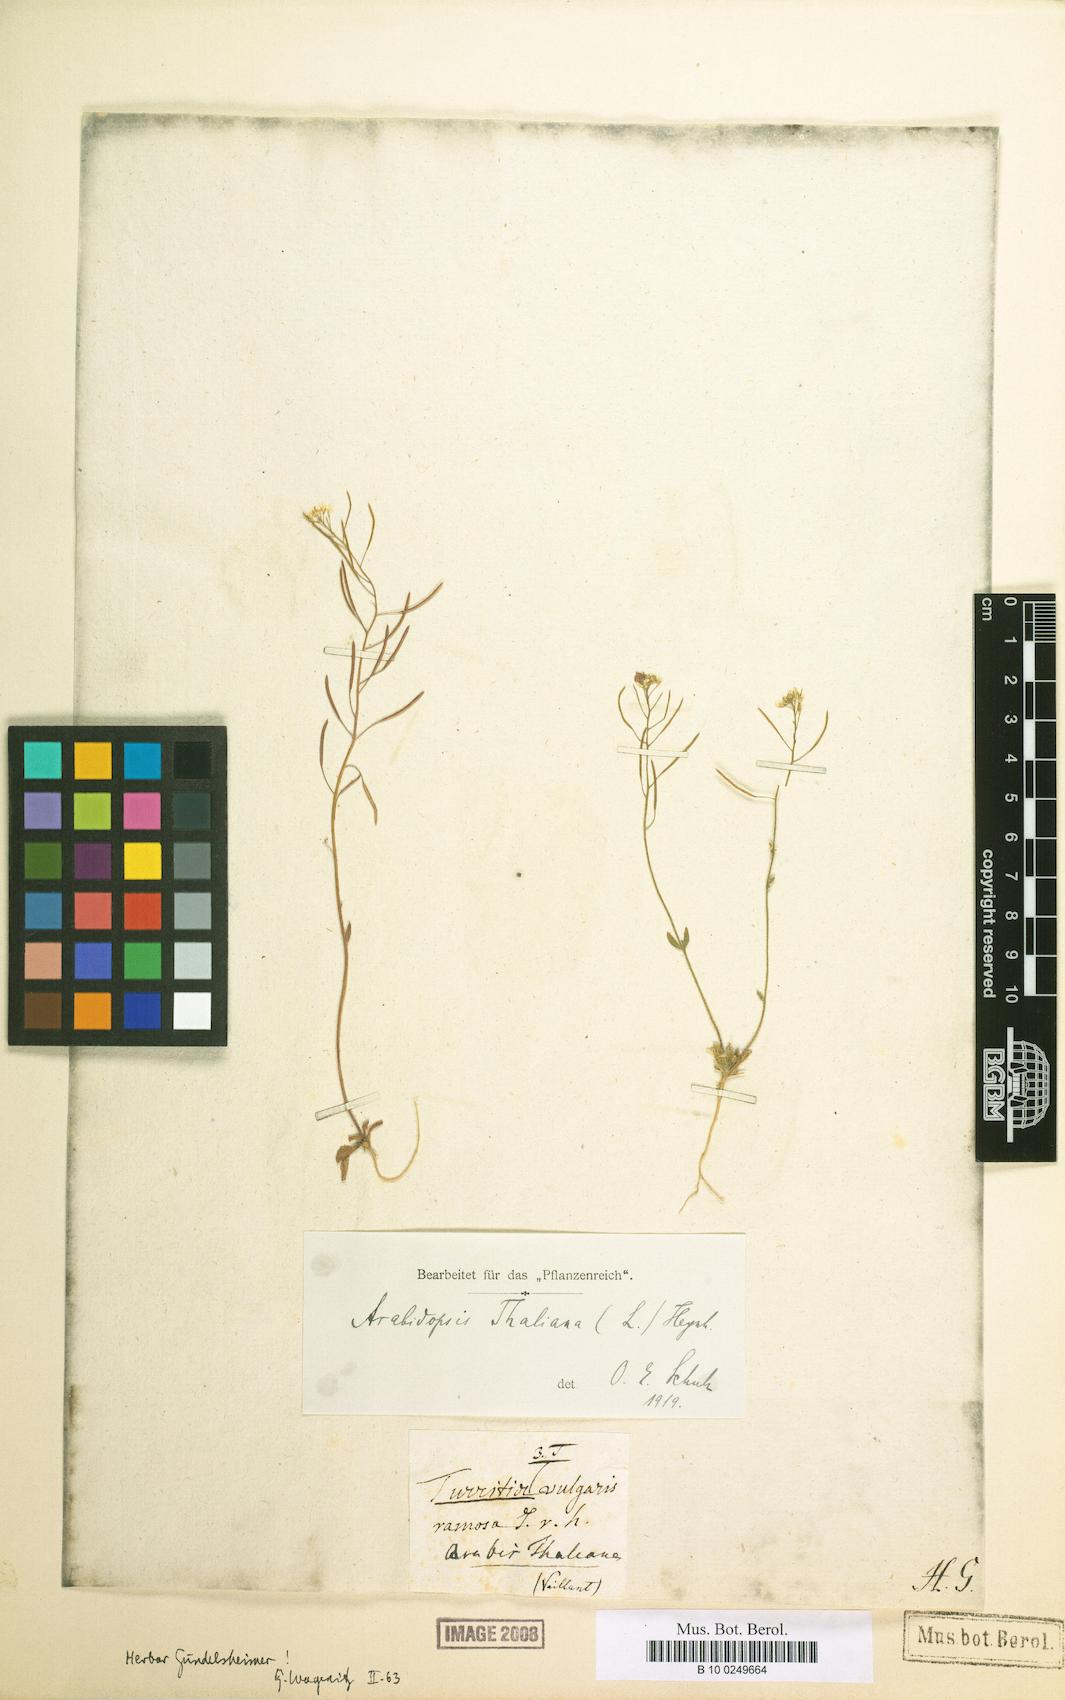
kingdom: Plantae
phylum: Tracheophyta
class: Magnoliopsida
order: Brassicales
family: Brassicaceae
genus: Arabidopsis
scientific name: Arabidopsis thaliana
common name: Thale cress
